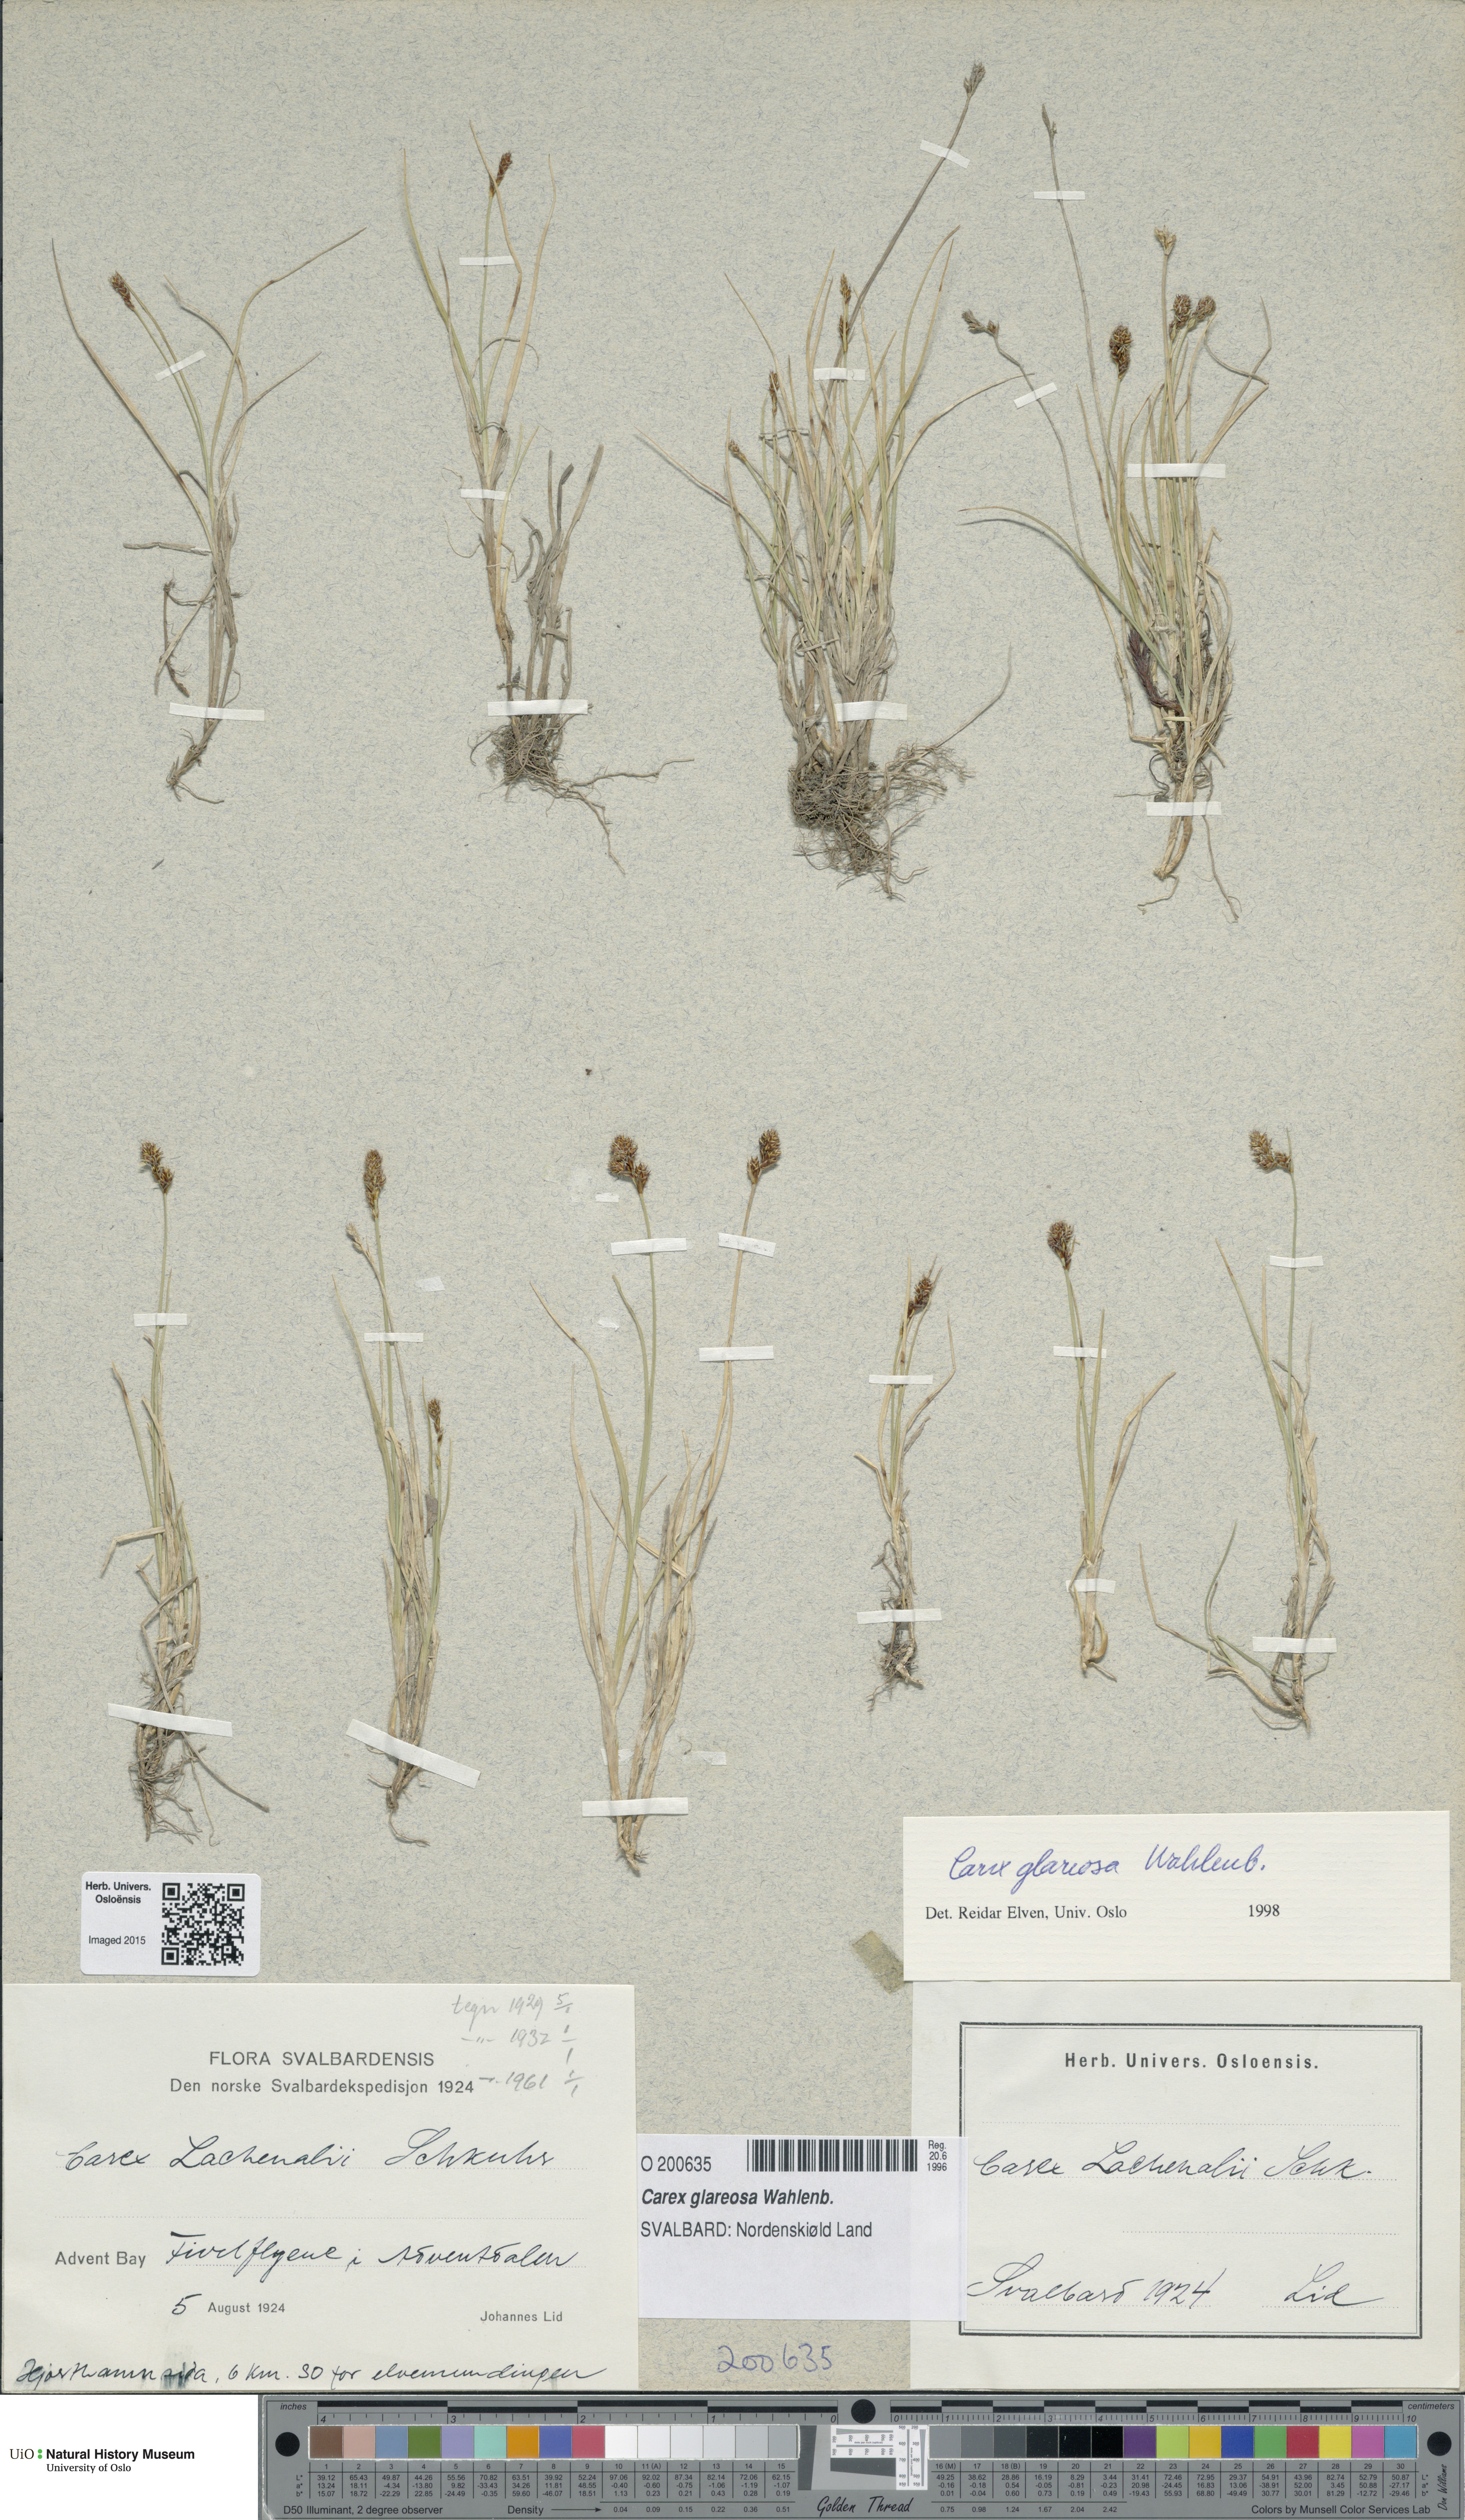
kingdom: Plantae
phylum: Tracheophyta
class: Liliopsida
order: Poales
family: Cyperaceae
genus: Carex
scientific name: Carex glareosa
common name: Clustered sedge
